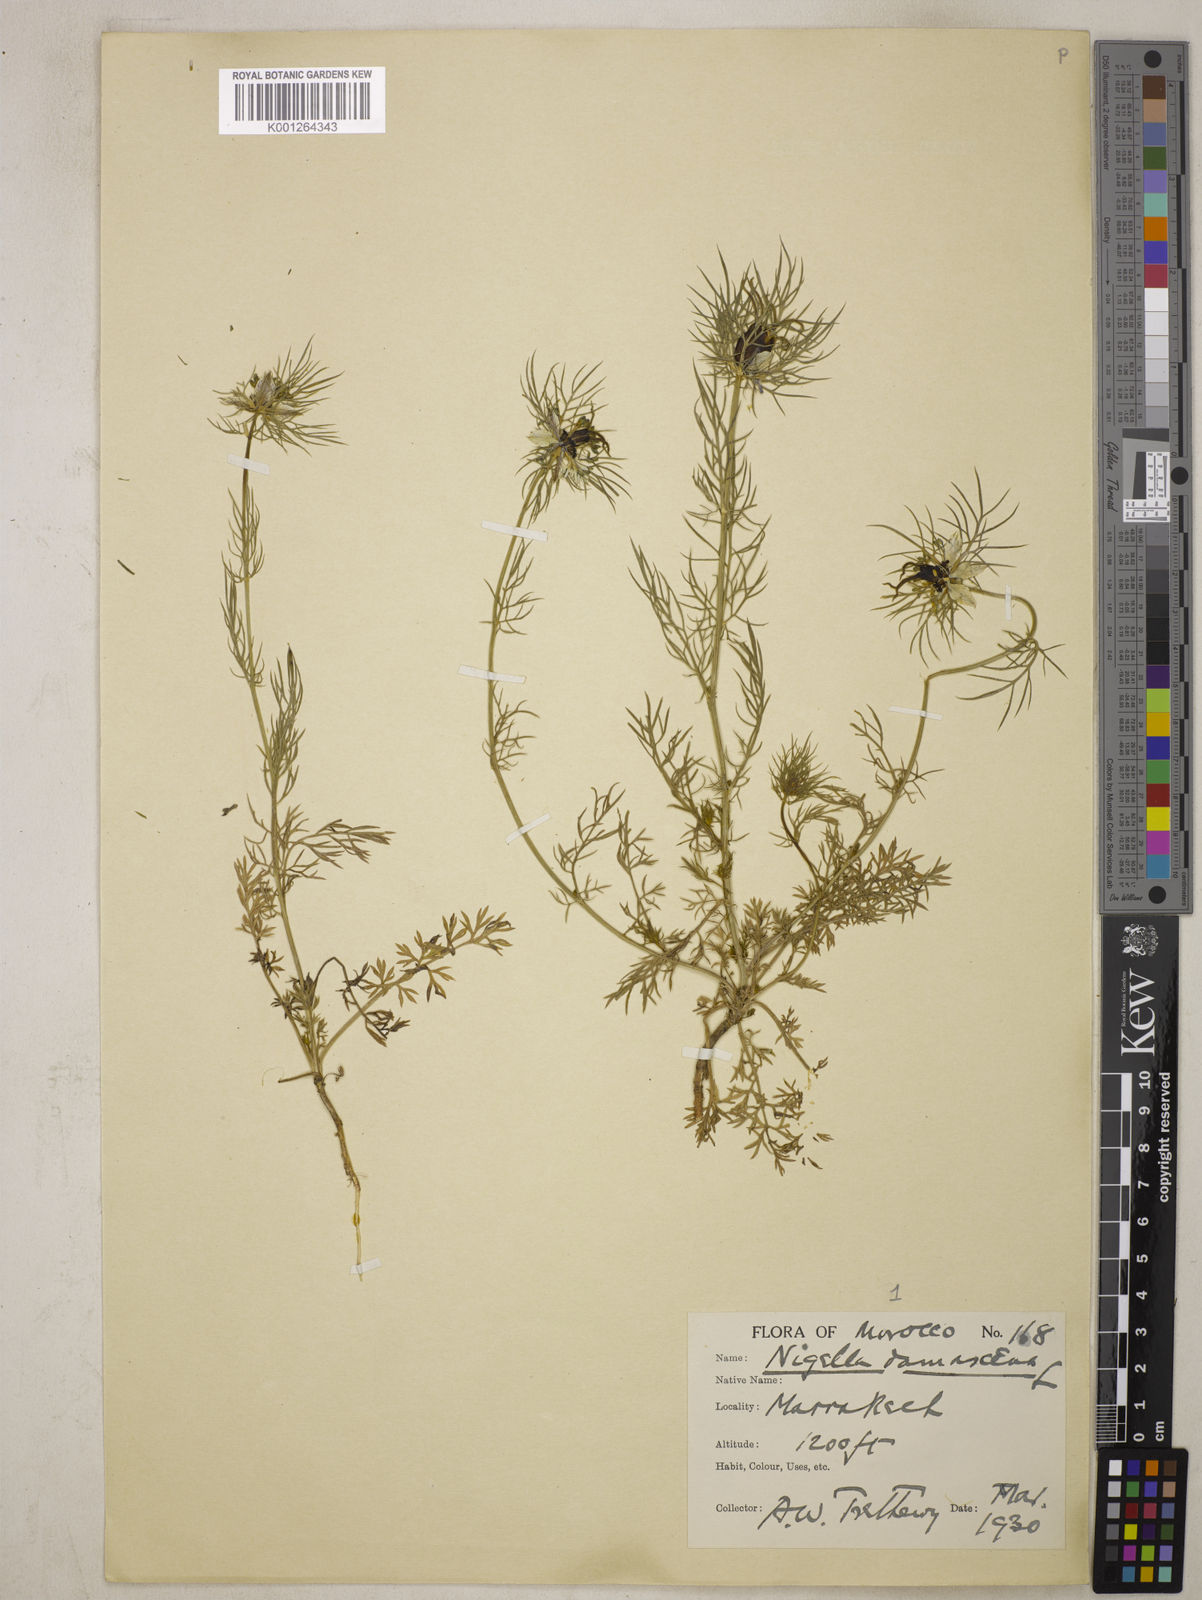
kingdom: Plantae
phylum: Tracheophyta
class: Magnoliopsida
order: Ranunculales
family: Ranunculaceae
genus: Nigella
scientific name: Nigella damascena
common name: Love-in-a-mist
